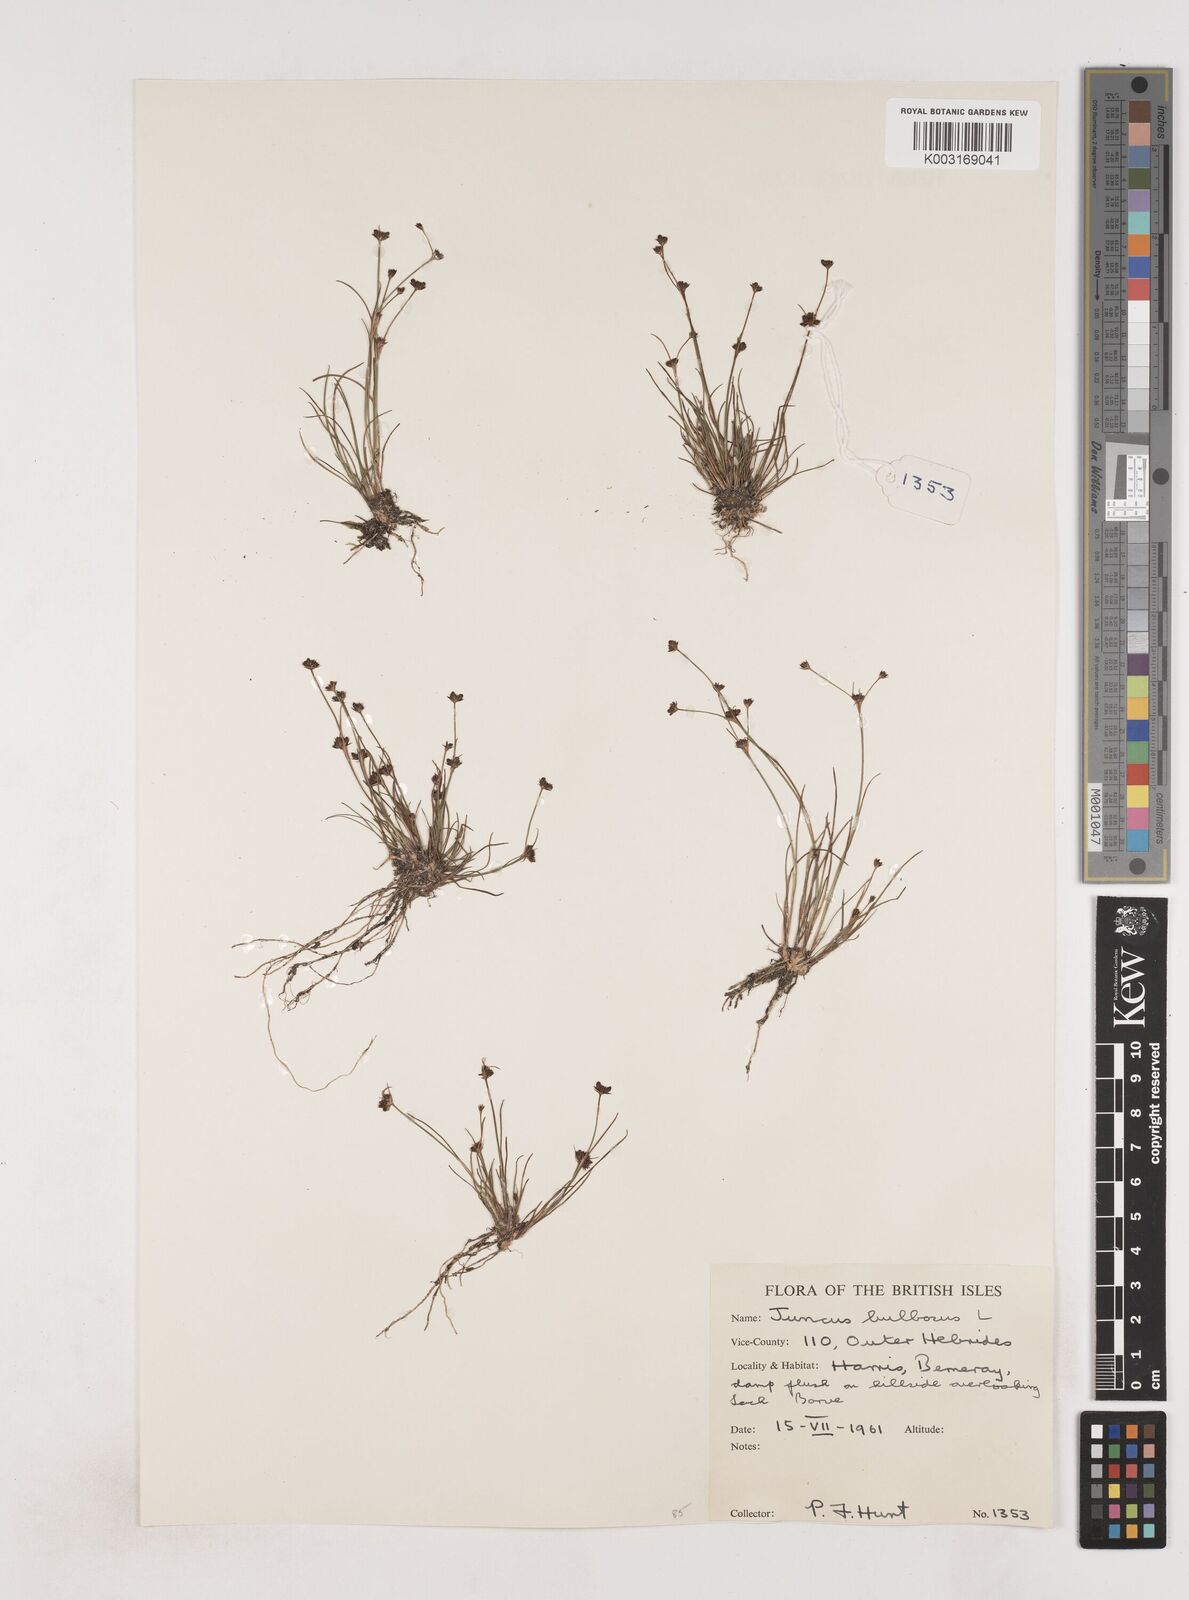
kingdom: Plantae
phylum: Tracheophyta
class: Liliopsida
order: Poales
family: Juncaceae
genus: Juncus
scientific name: Juncus bulbosus
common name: Bulbous rush
